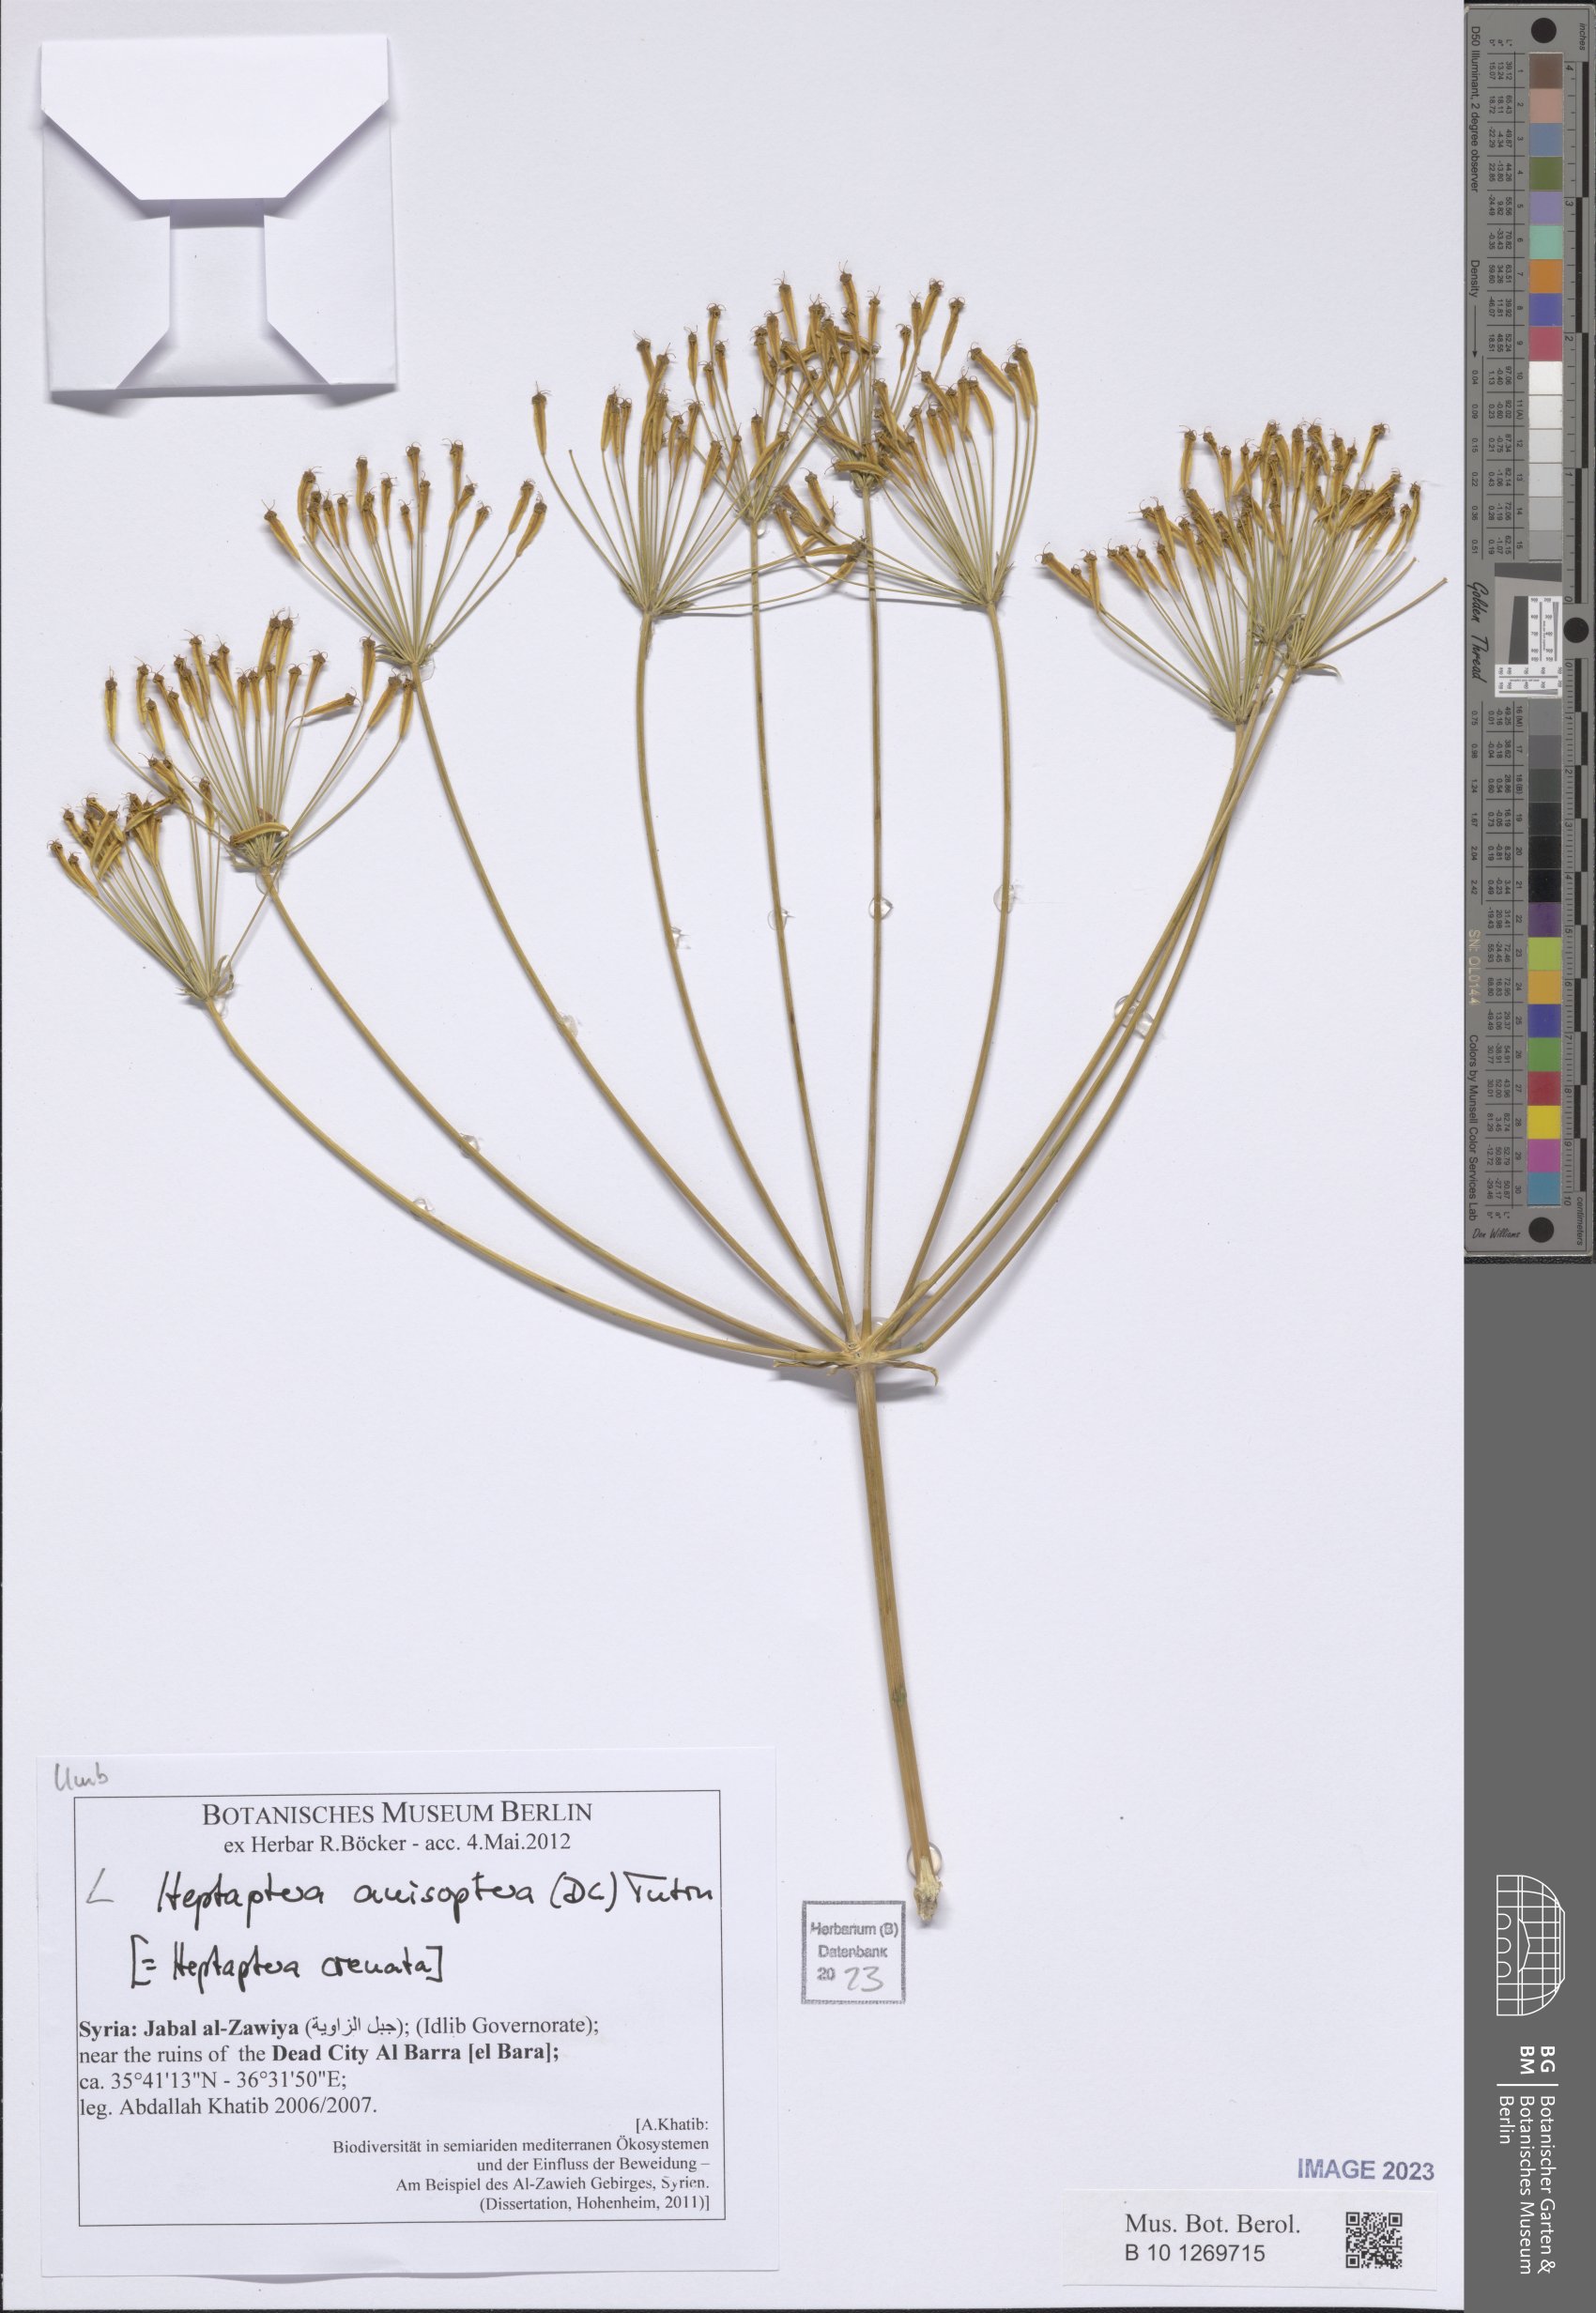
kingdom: Plantae
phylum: Tracheophyta
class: Magnoliopsida
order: Apiales
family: Apiaceae
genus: Heptaptera
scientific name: Heptaptera anisoptera
